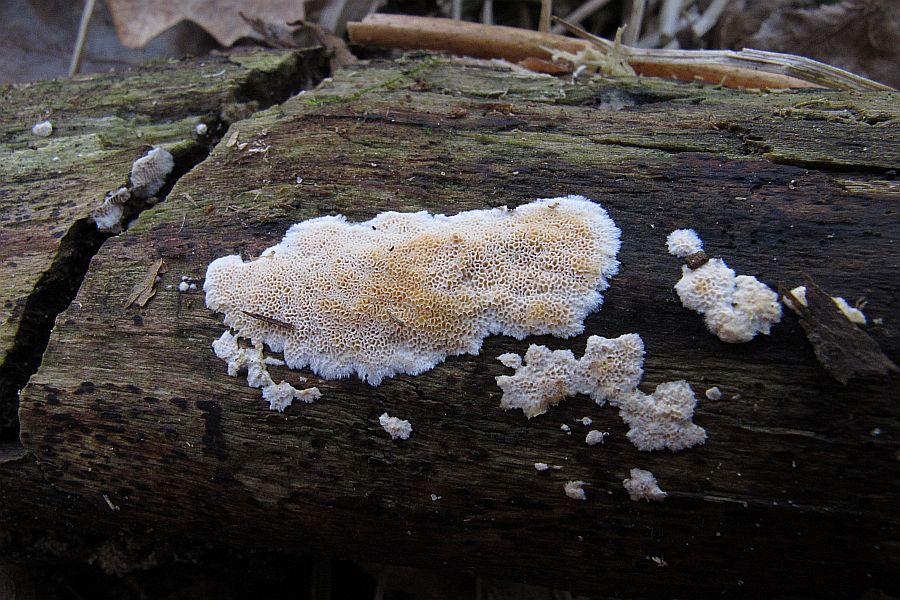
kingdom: Fungi
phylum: Basidiomycota
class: Agaricomycetes
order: Hymenochaetales
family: Schizoporaceae
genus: Xylodon
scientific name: Xylodon subtropicus
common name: labyrint-tandsvamp
